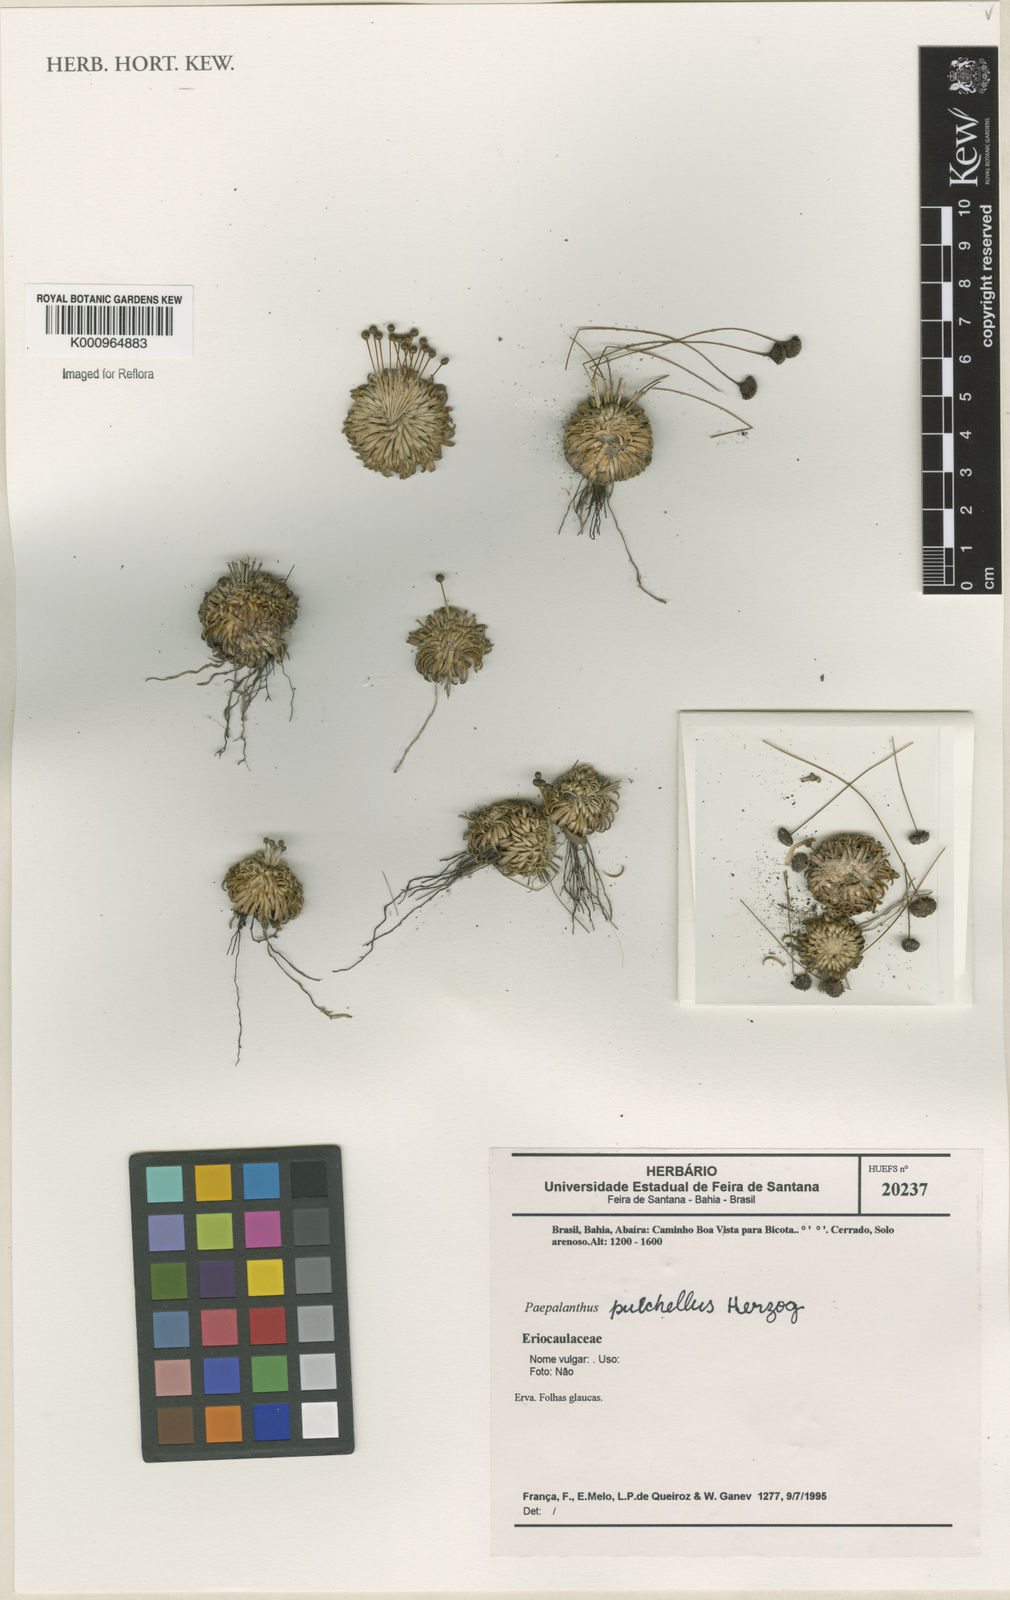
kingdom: Plantae
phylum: Tracheophyta
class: Liliopsida
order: Poales
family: Eriocaulaceae
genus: Paepalanthus
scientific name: Paepalanthus pulchellus
